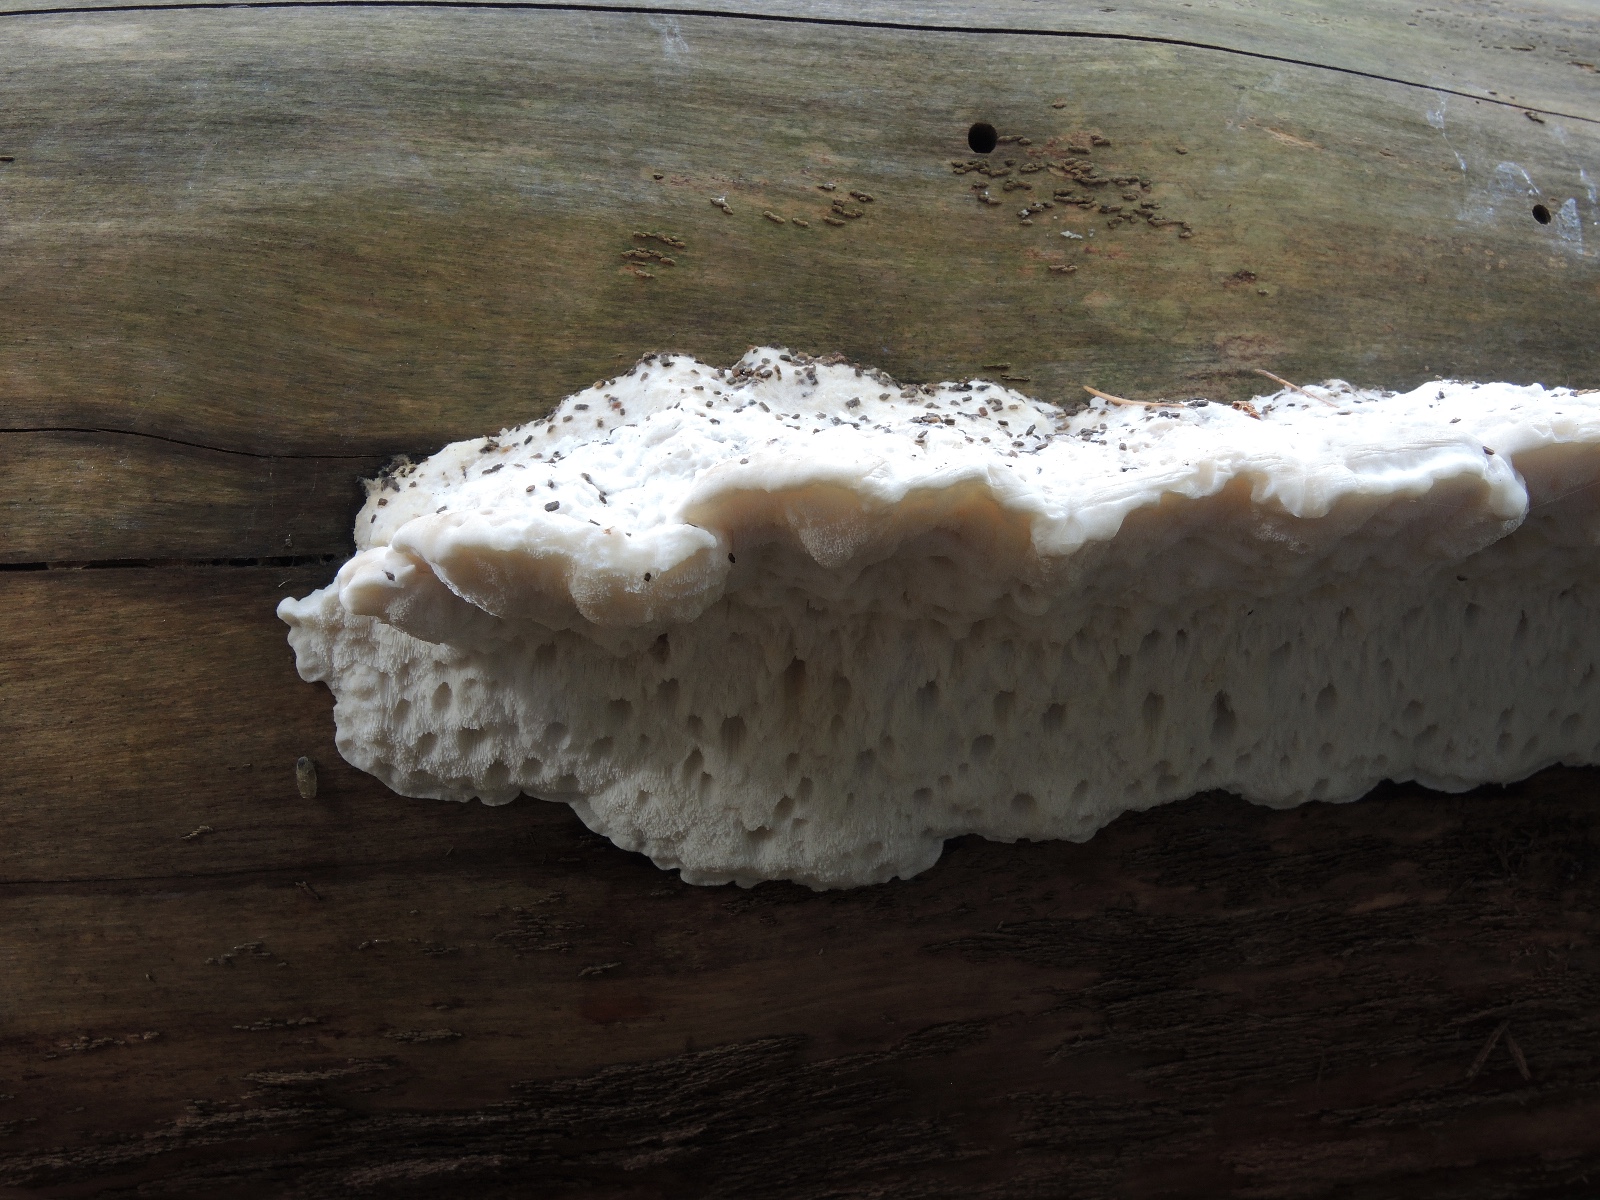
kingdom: Fungi
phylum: Basidiomycota
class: Agaricomycetes
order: Polyporales
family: Incrustoporiaceae
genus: Tyromyces
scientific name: Tyromyces lacteus
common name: mælkehvid kødporesvamp
